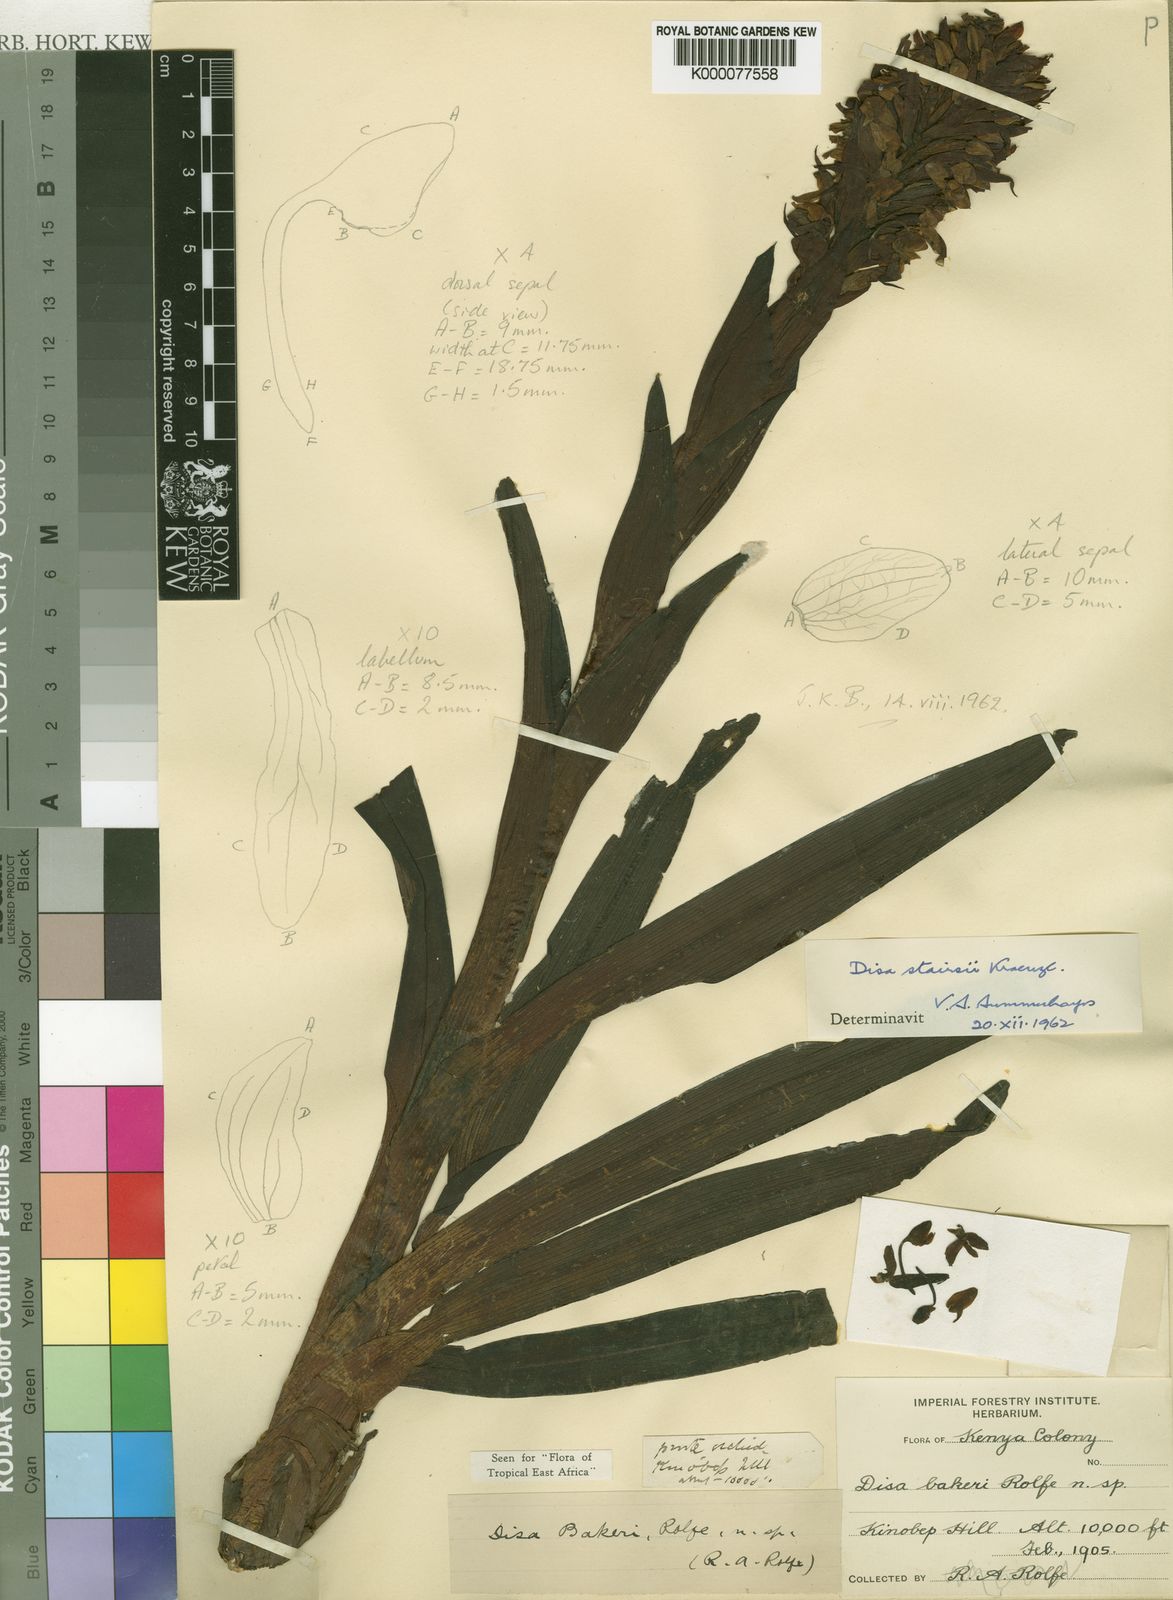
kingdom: Plantae
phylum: Tracheophyta
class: Liliopsida
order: Asparagales
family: Orchidaceae
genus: Disa
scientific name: Disa stairsii
